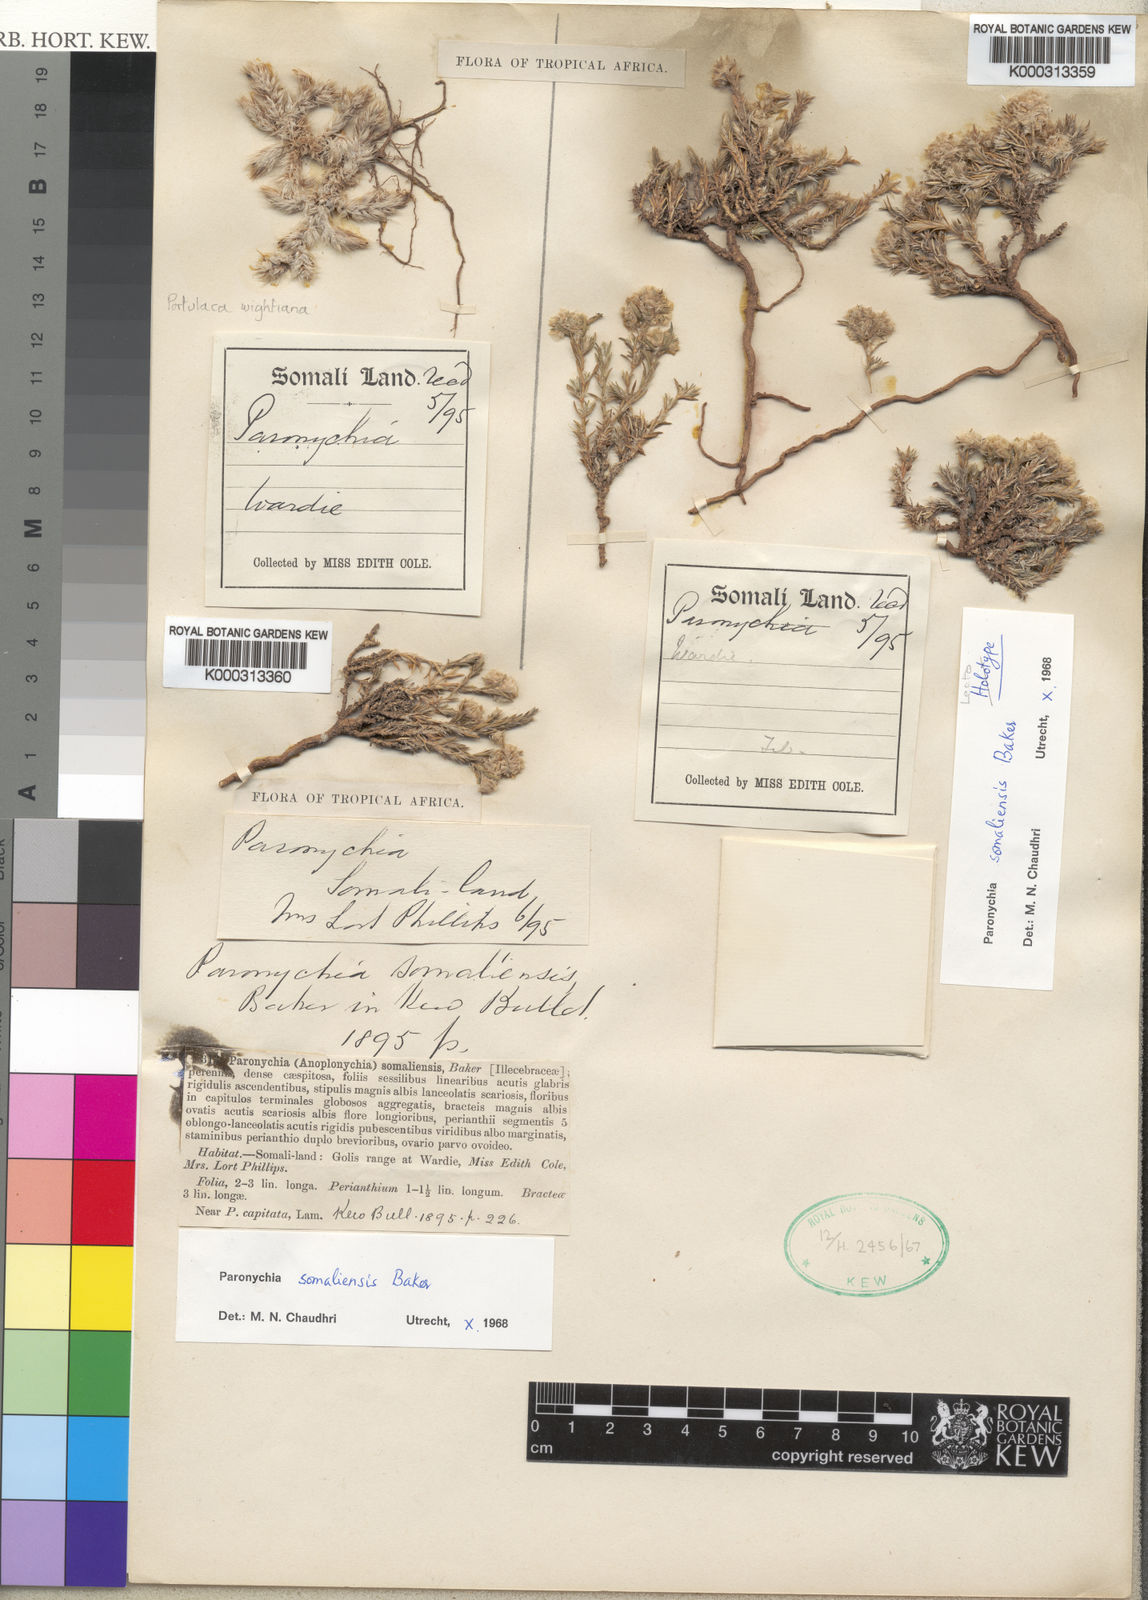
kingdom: Plantae
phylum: Tracheophyta
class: Magnoliopsida
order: Caryophyllales
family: Caryophyllaceae
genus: Paronychia
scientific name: Paronychia somaliensis
